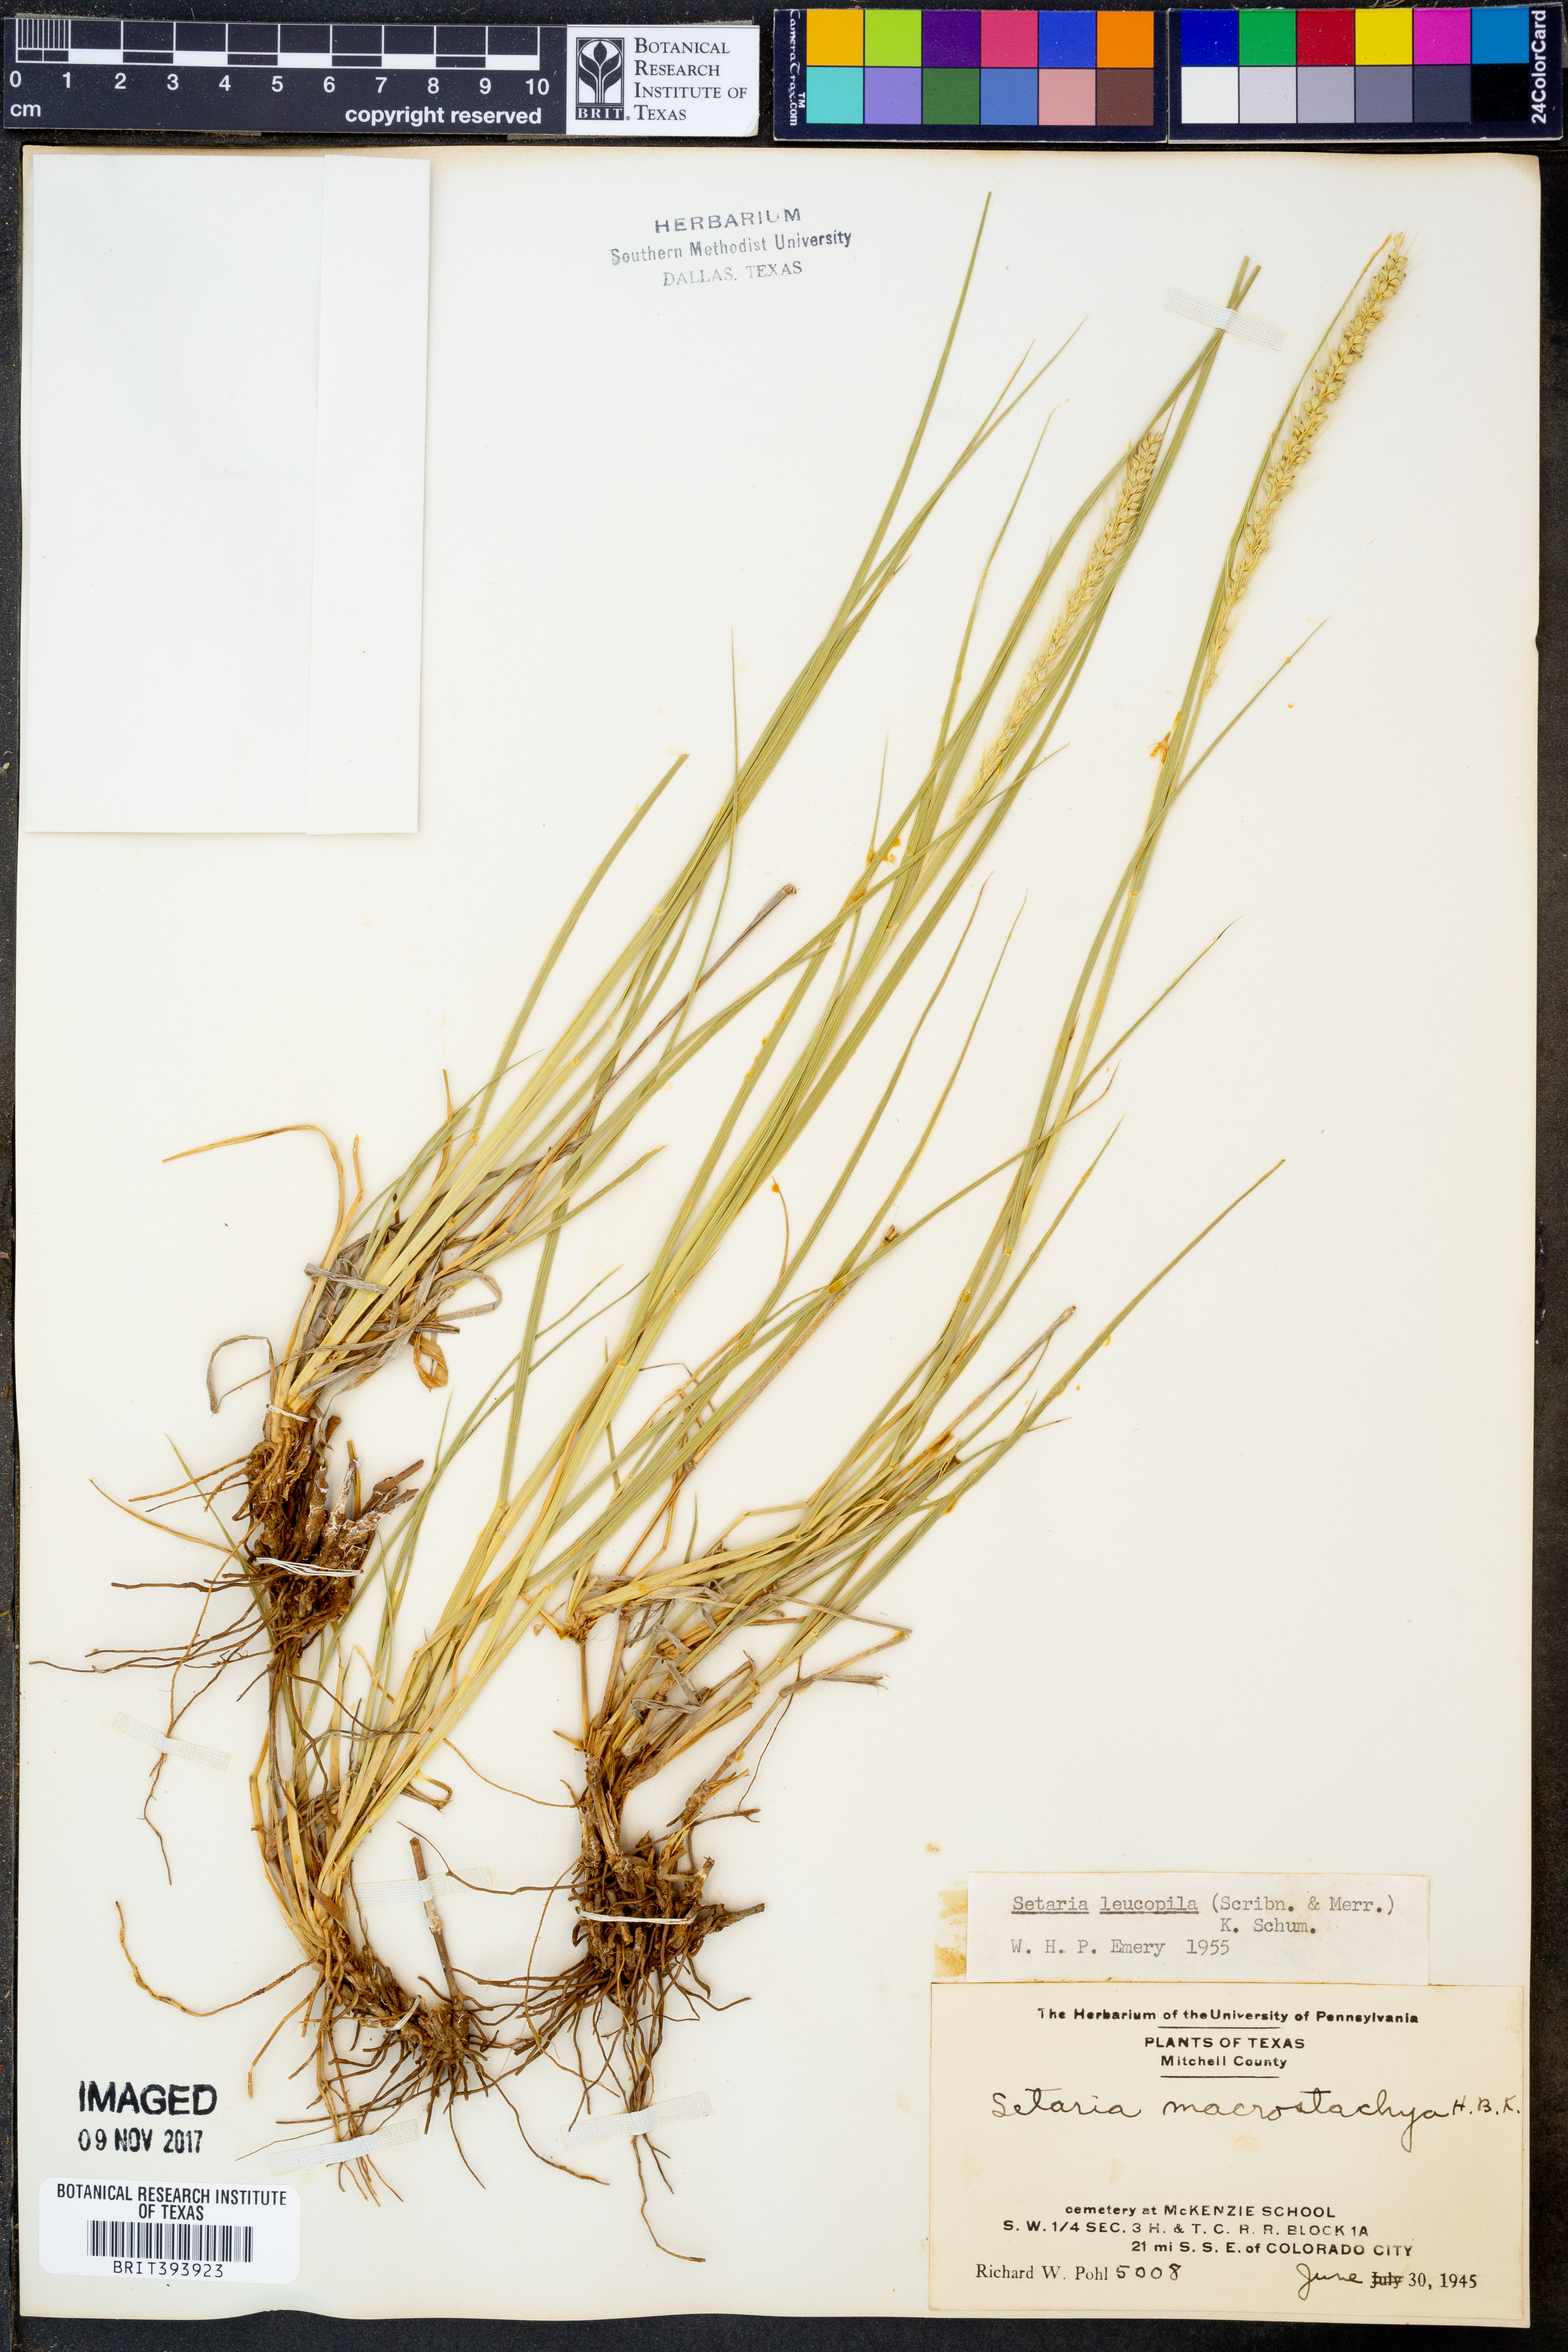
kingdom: Plantae
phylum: Tracheophyta
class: Liliopsida
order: Poales
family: Poaceae
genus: Setaria
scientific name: Setaria leucopila
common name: Plains bristle grass
